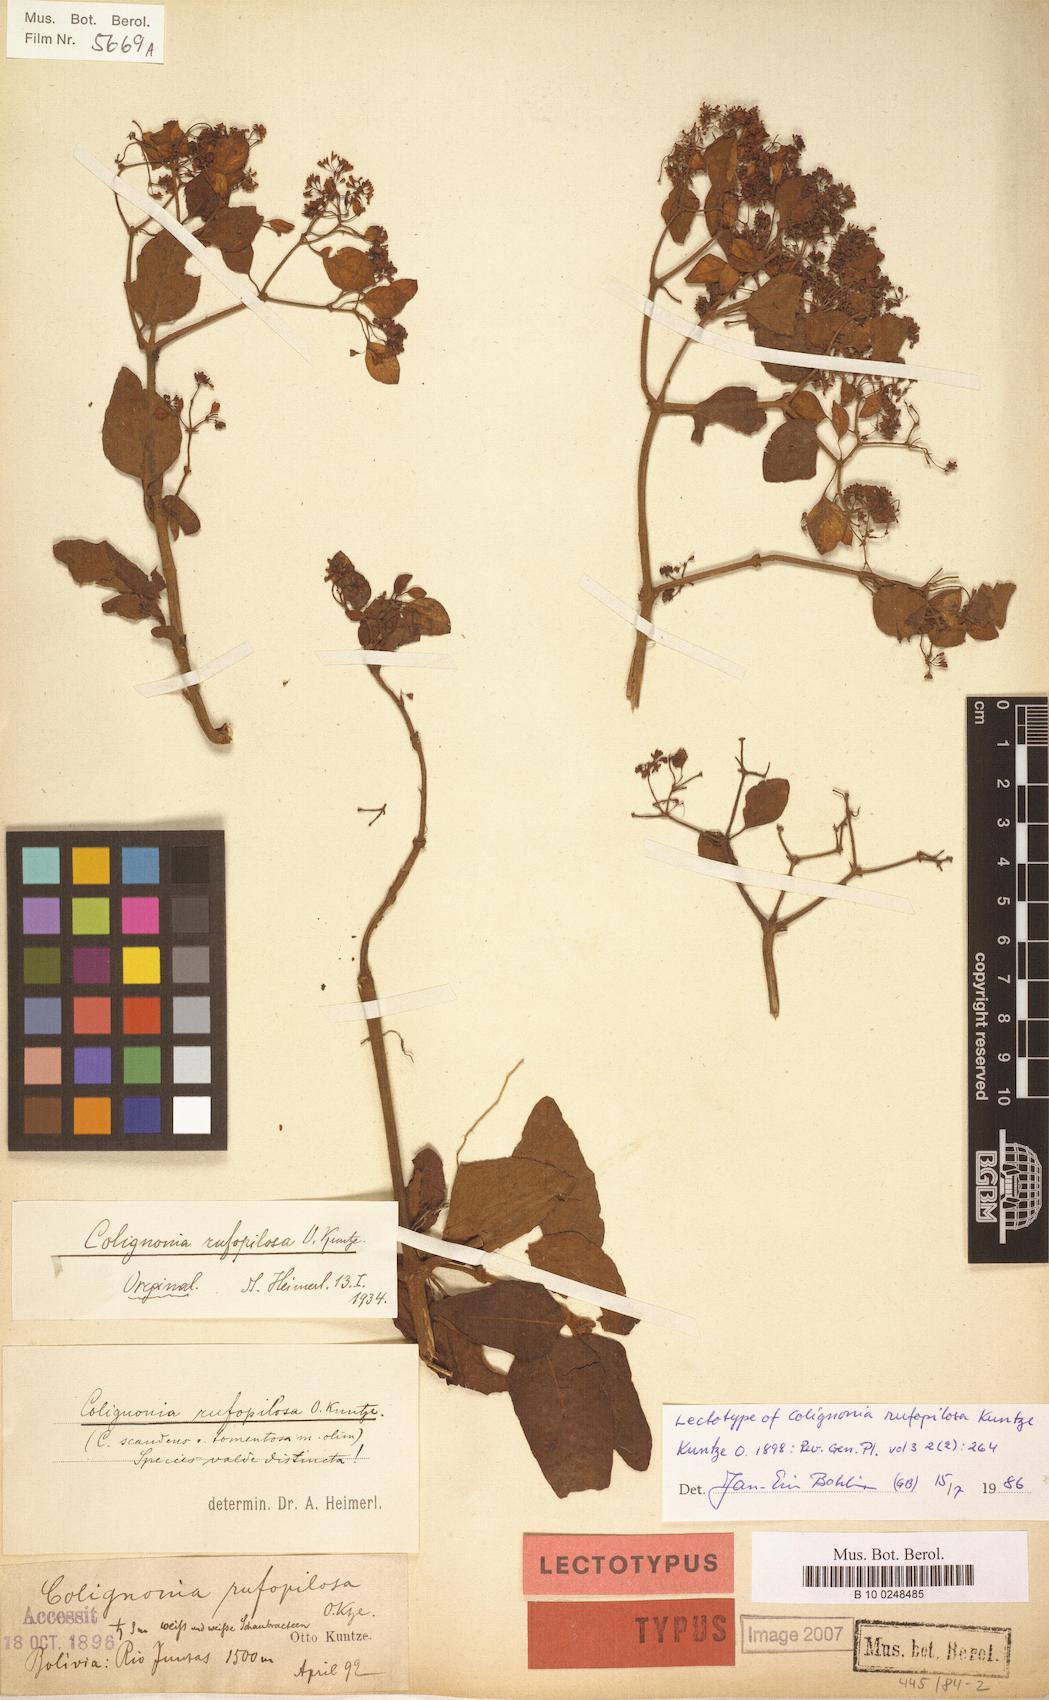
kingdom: Plantae
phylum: Tracheophyta
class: Magnoliopsida
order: Caryophyllales
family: Nyctaginaceae
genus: Colignonia
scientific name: Colignonia rufopilosa
